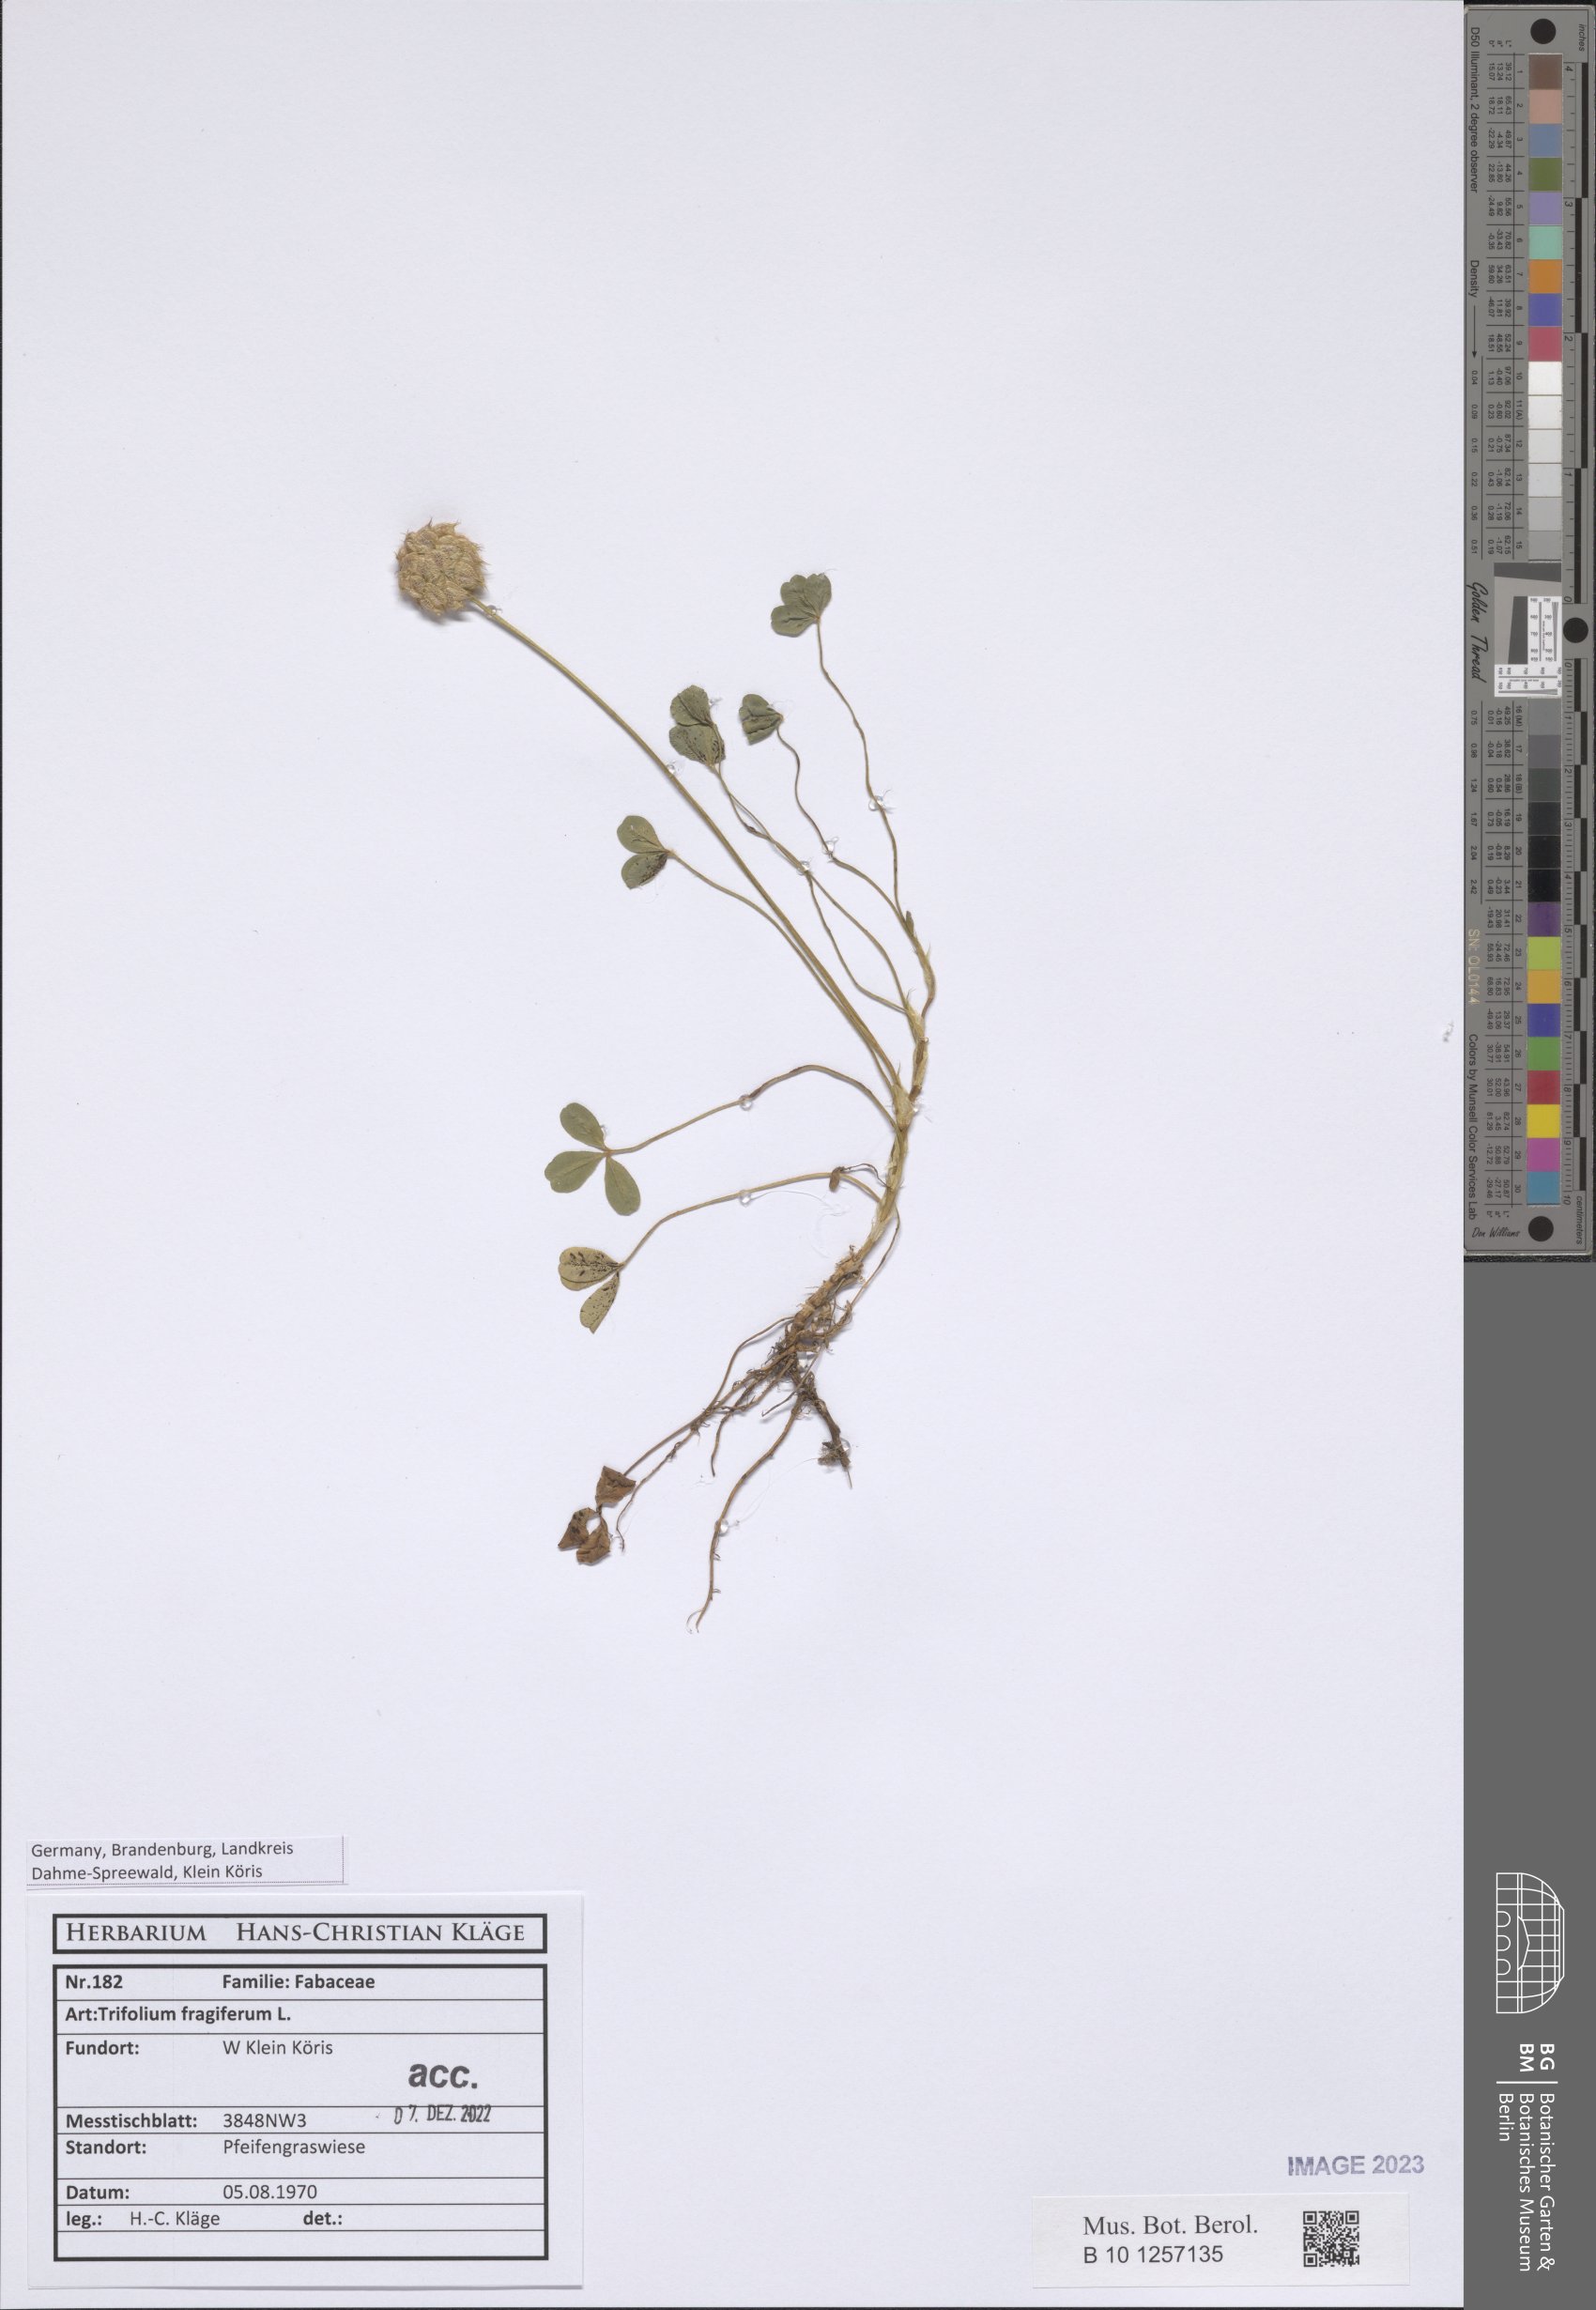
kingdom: Plantae
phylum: Tracheophyta
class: Magnoliopsida
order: Fabales
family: Fabaceae
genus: Trifolium
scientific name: Trifolium fragiferum
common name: Strawberry clover
